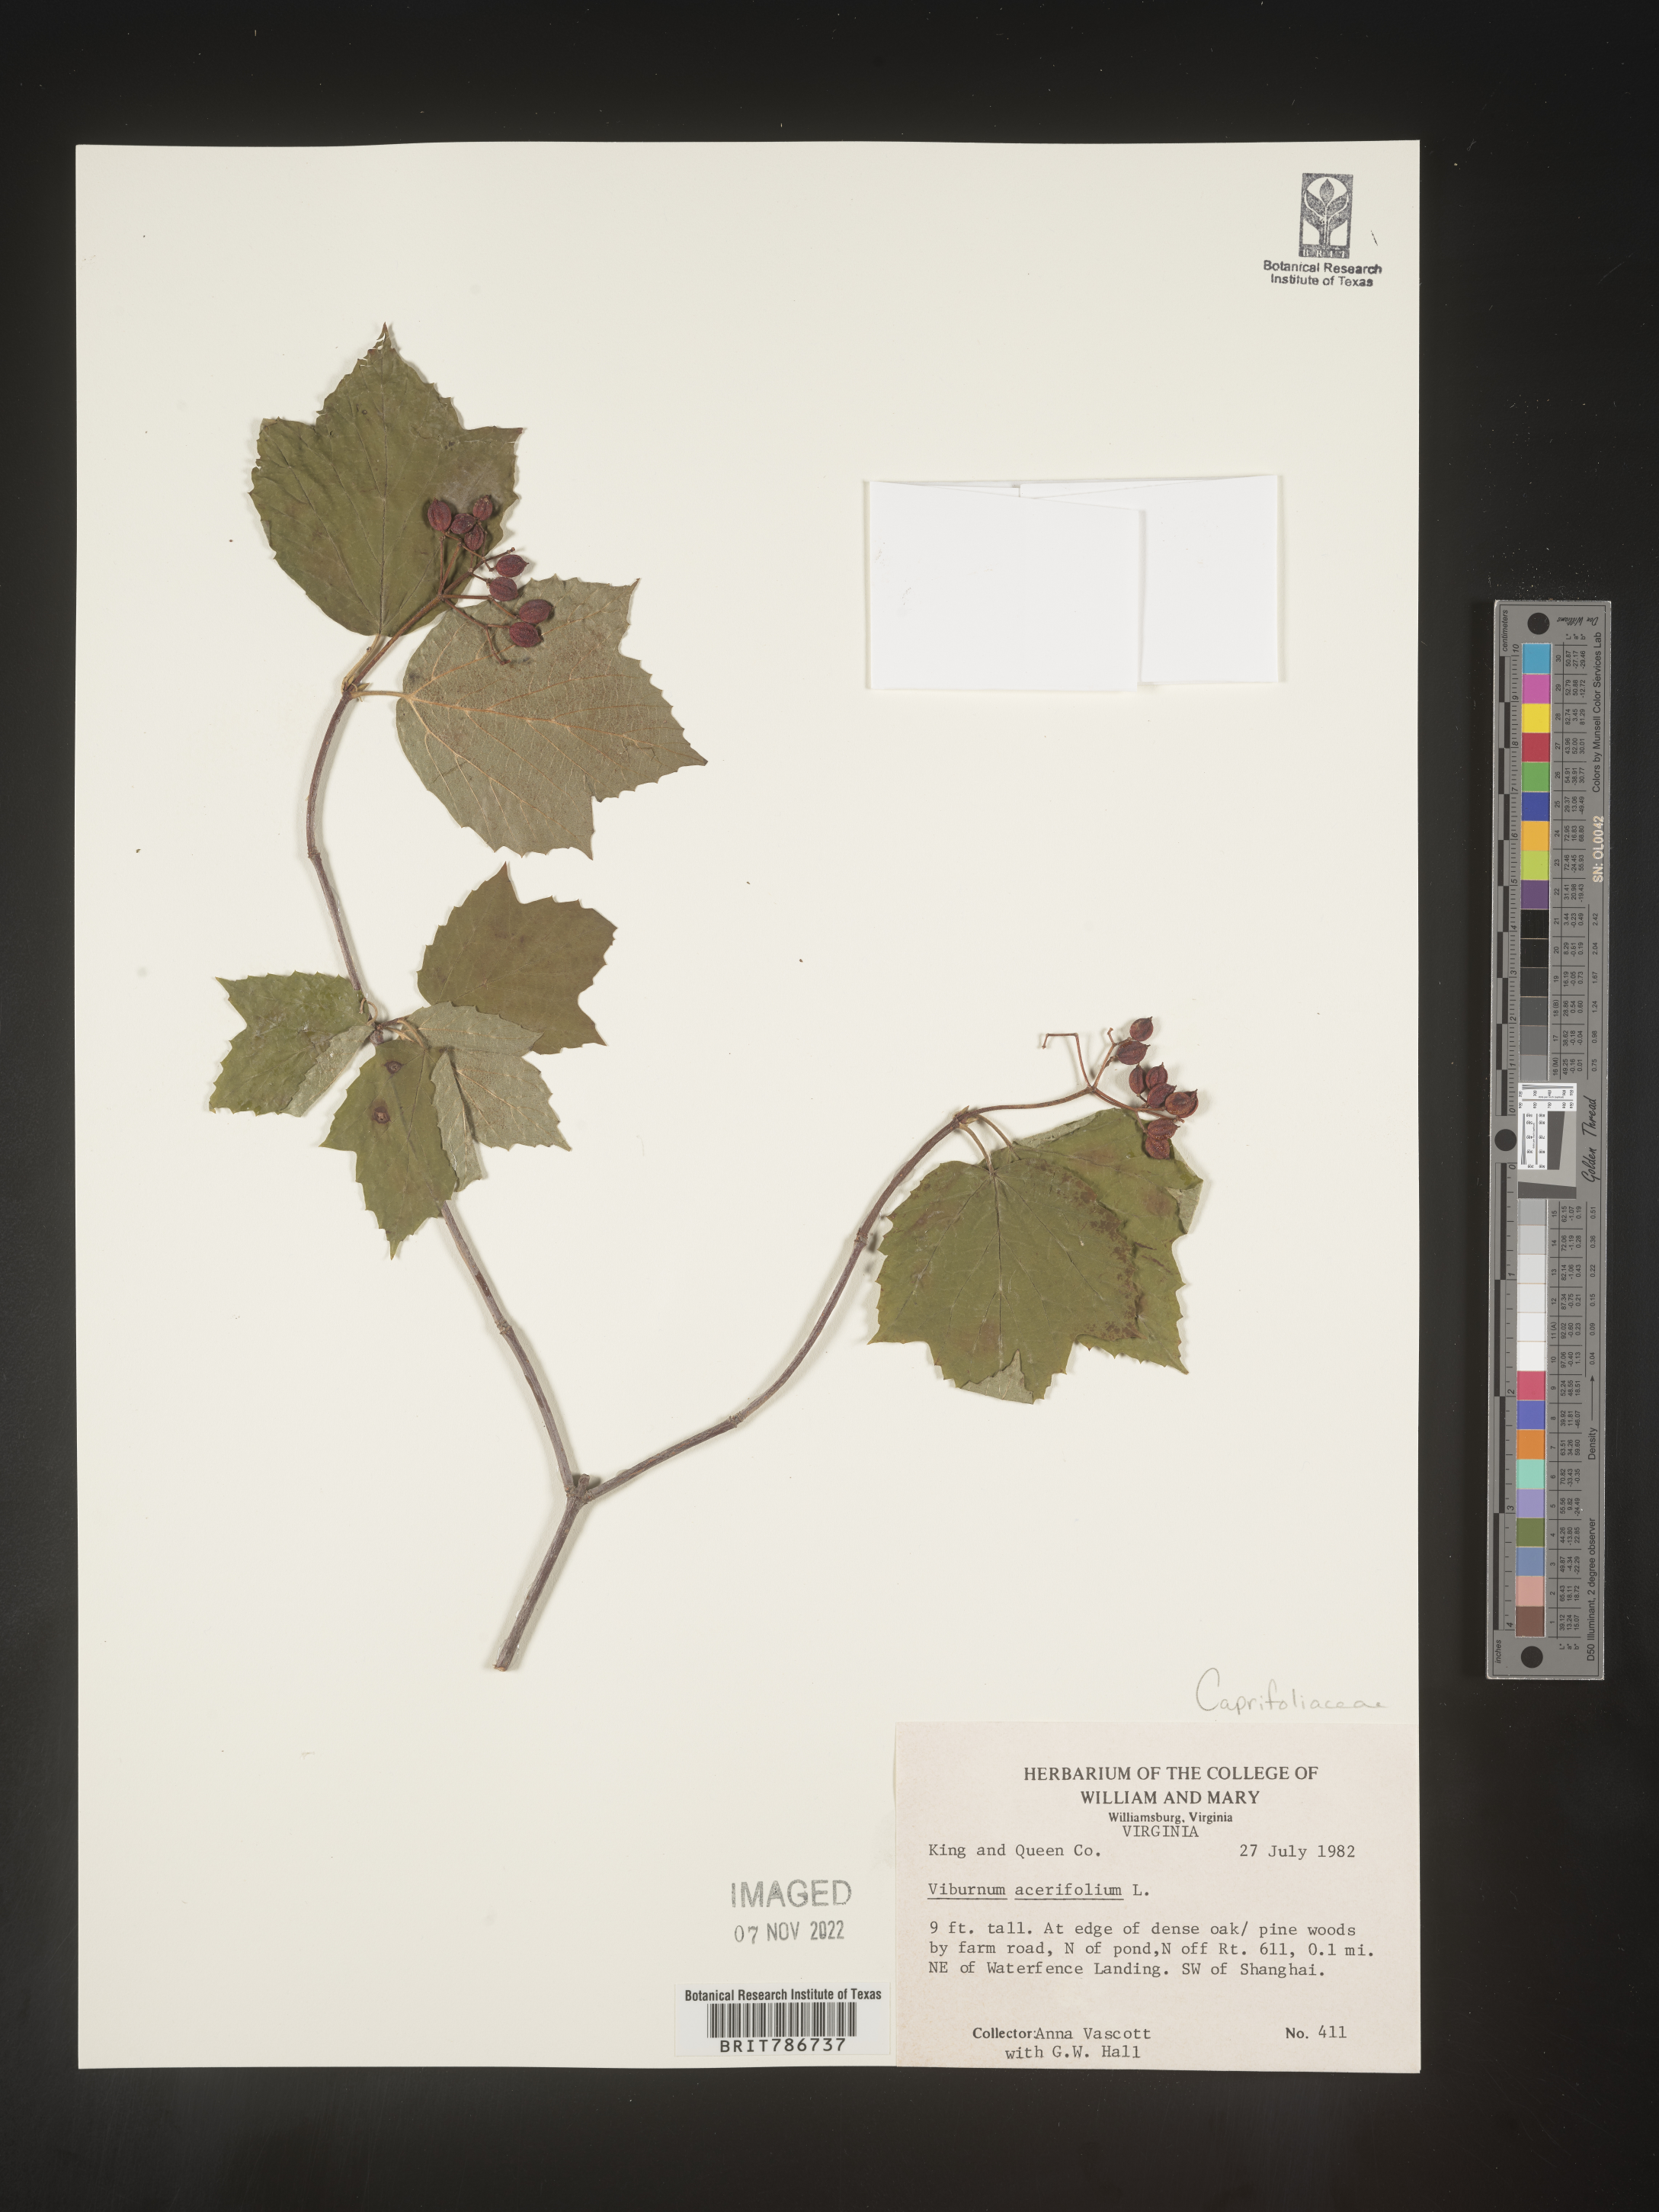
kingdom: Plantae
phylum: Tracheophyta
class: Magnoliopsida
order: Dipsacales
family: Viburnaceae
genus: Viburnum
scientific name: Viburnum acerifolium
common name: Dockmackie
